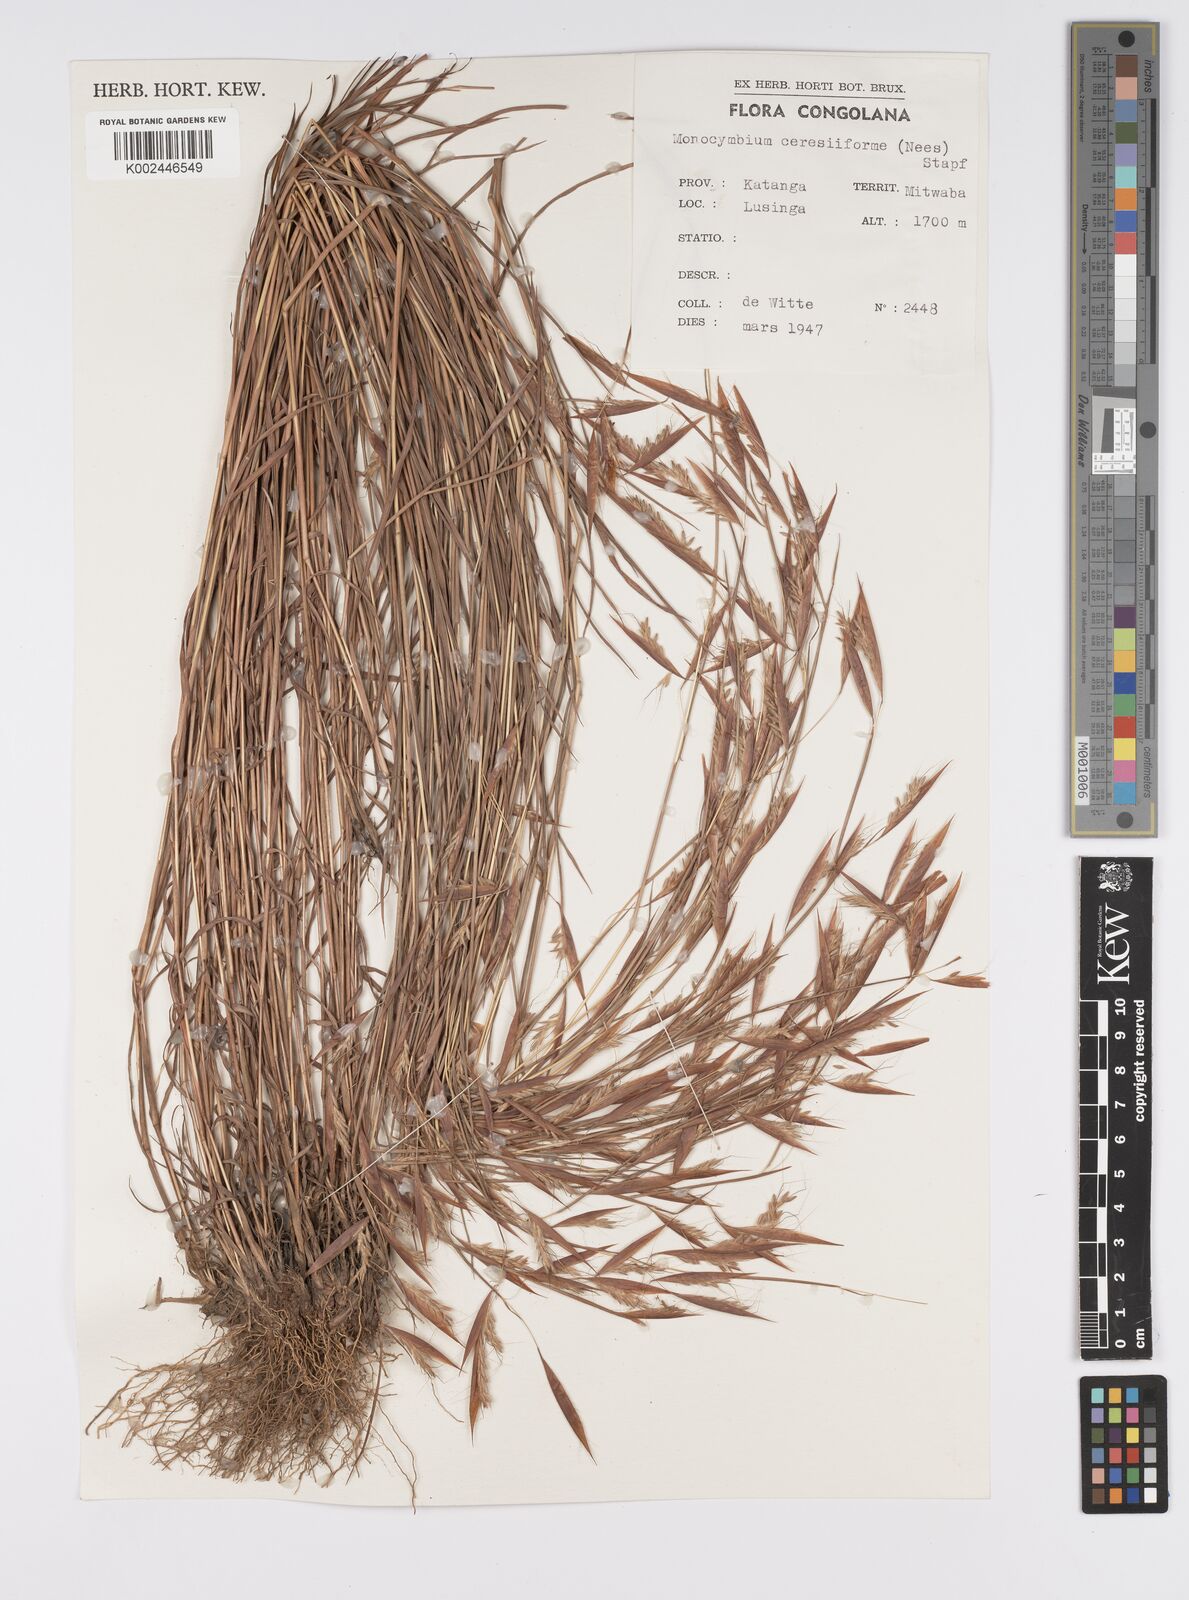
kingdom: Plantae
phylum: Tracheophyta
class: Liliopsida
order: Poales
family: Poaceae
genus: Monocymbium
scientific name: Monocymbium ceresiiforme
